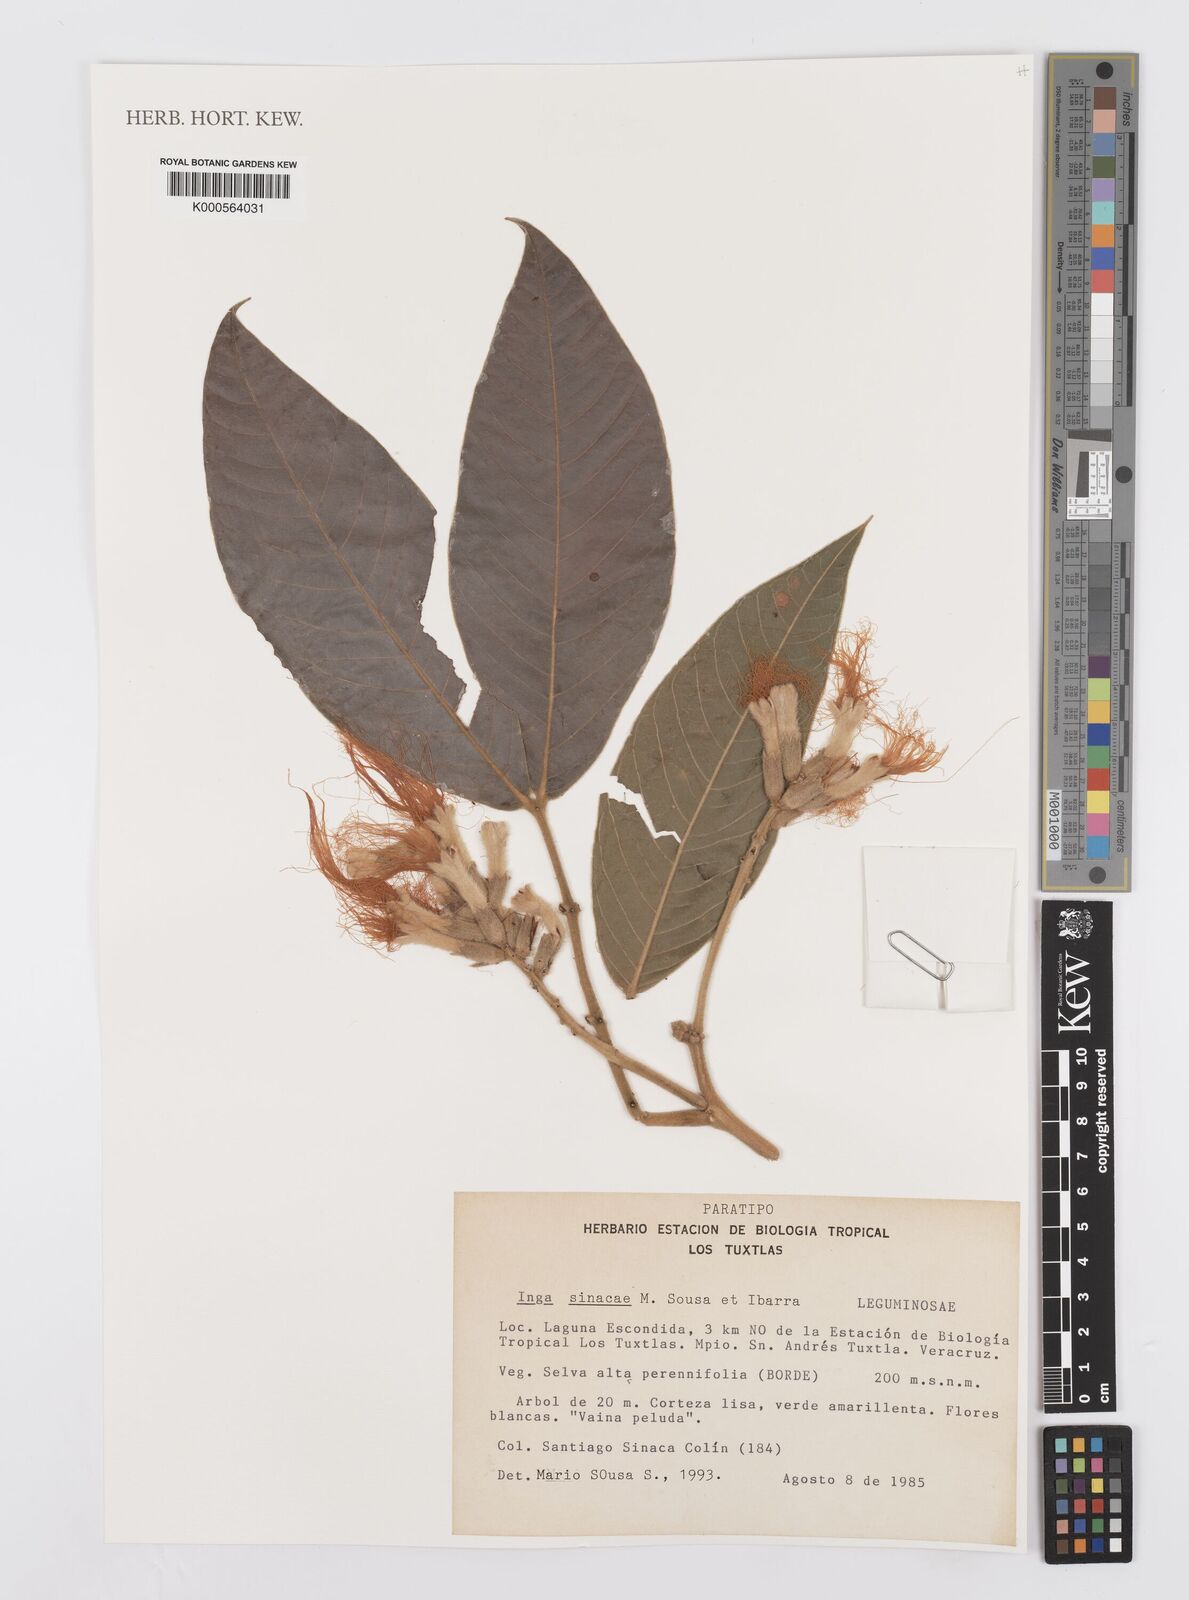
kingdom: Plantae
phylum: Tracheophyta
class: Magnoliopsida
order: Fabales
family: Fabaceae
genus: Inga
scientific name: Inga sinacae
